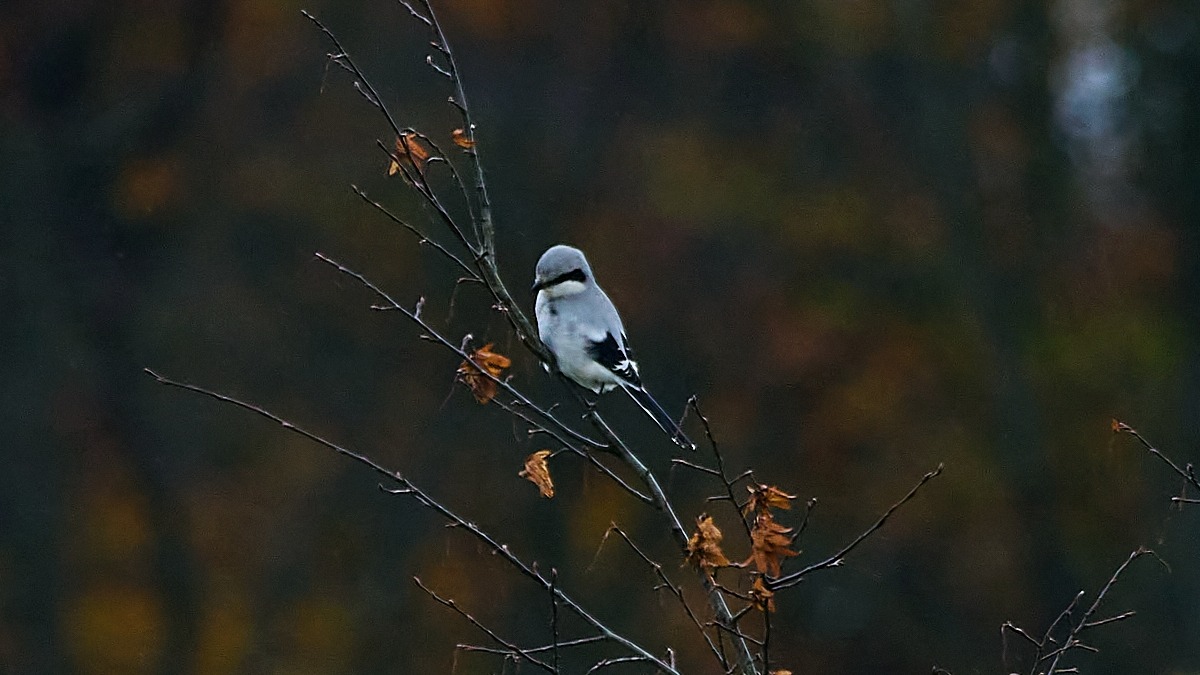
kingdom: Animalia
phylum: Chordata
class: Aves
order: Passeriformes
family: Laniidae
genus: Lanius
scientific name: Lanius excubitor
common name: Stor tornskade
